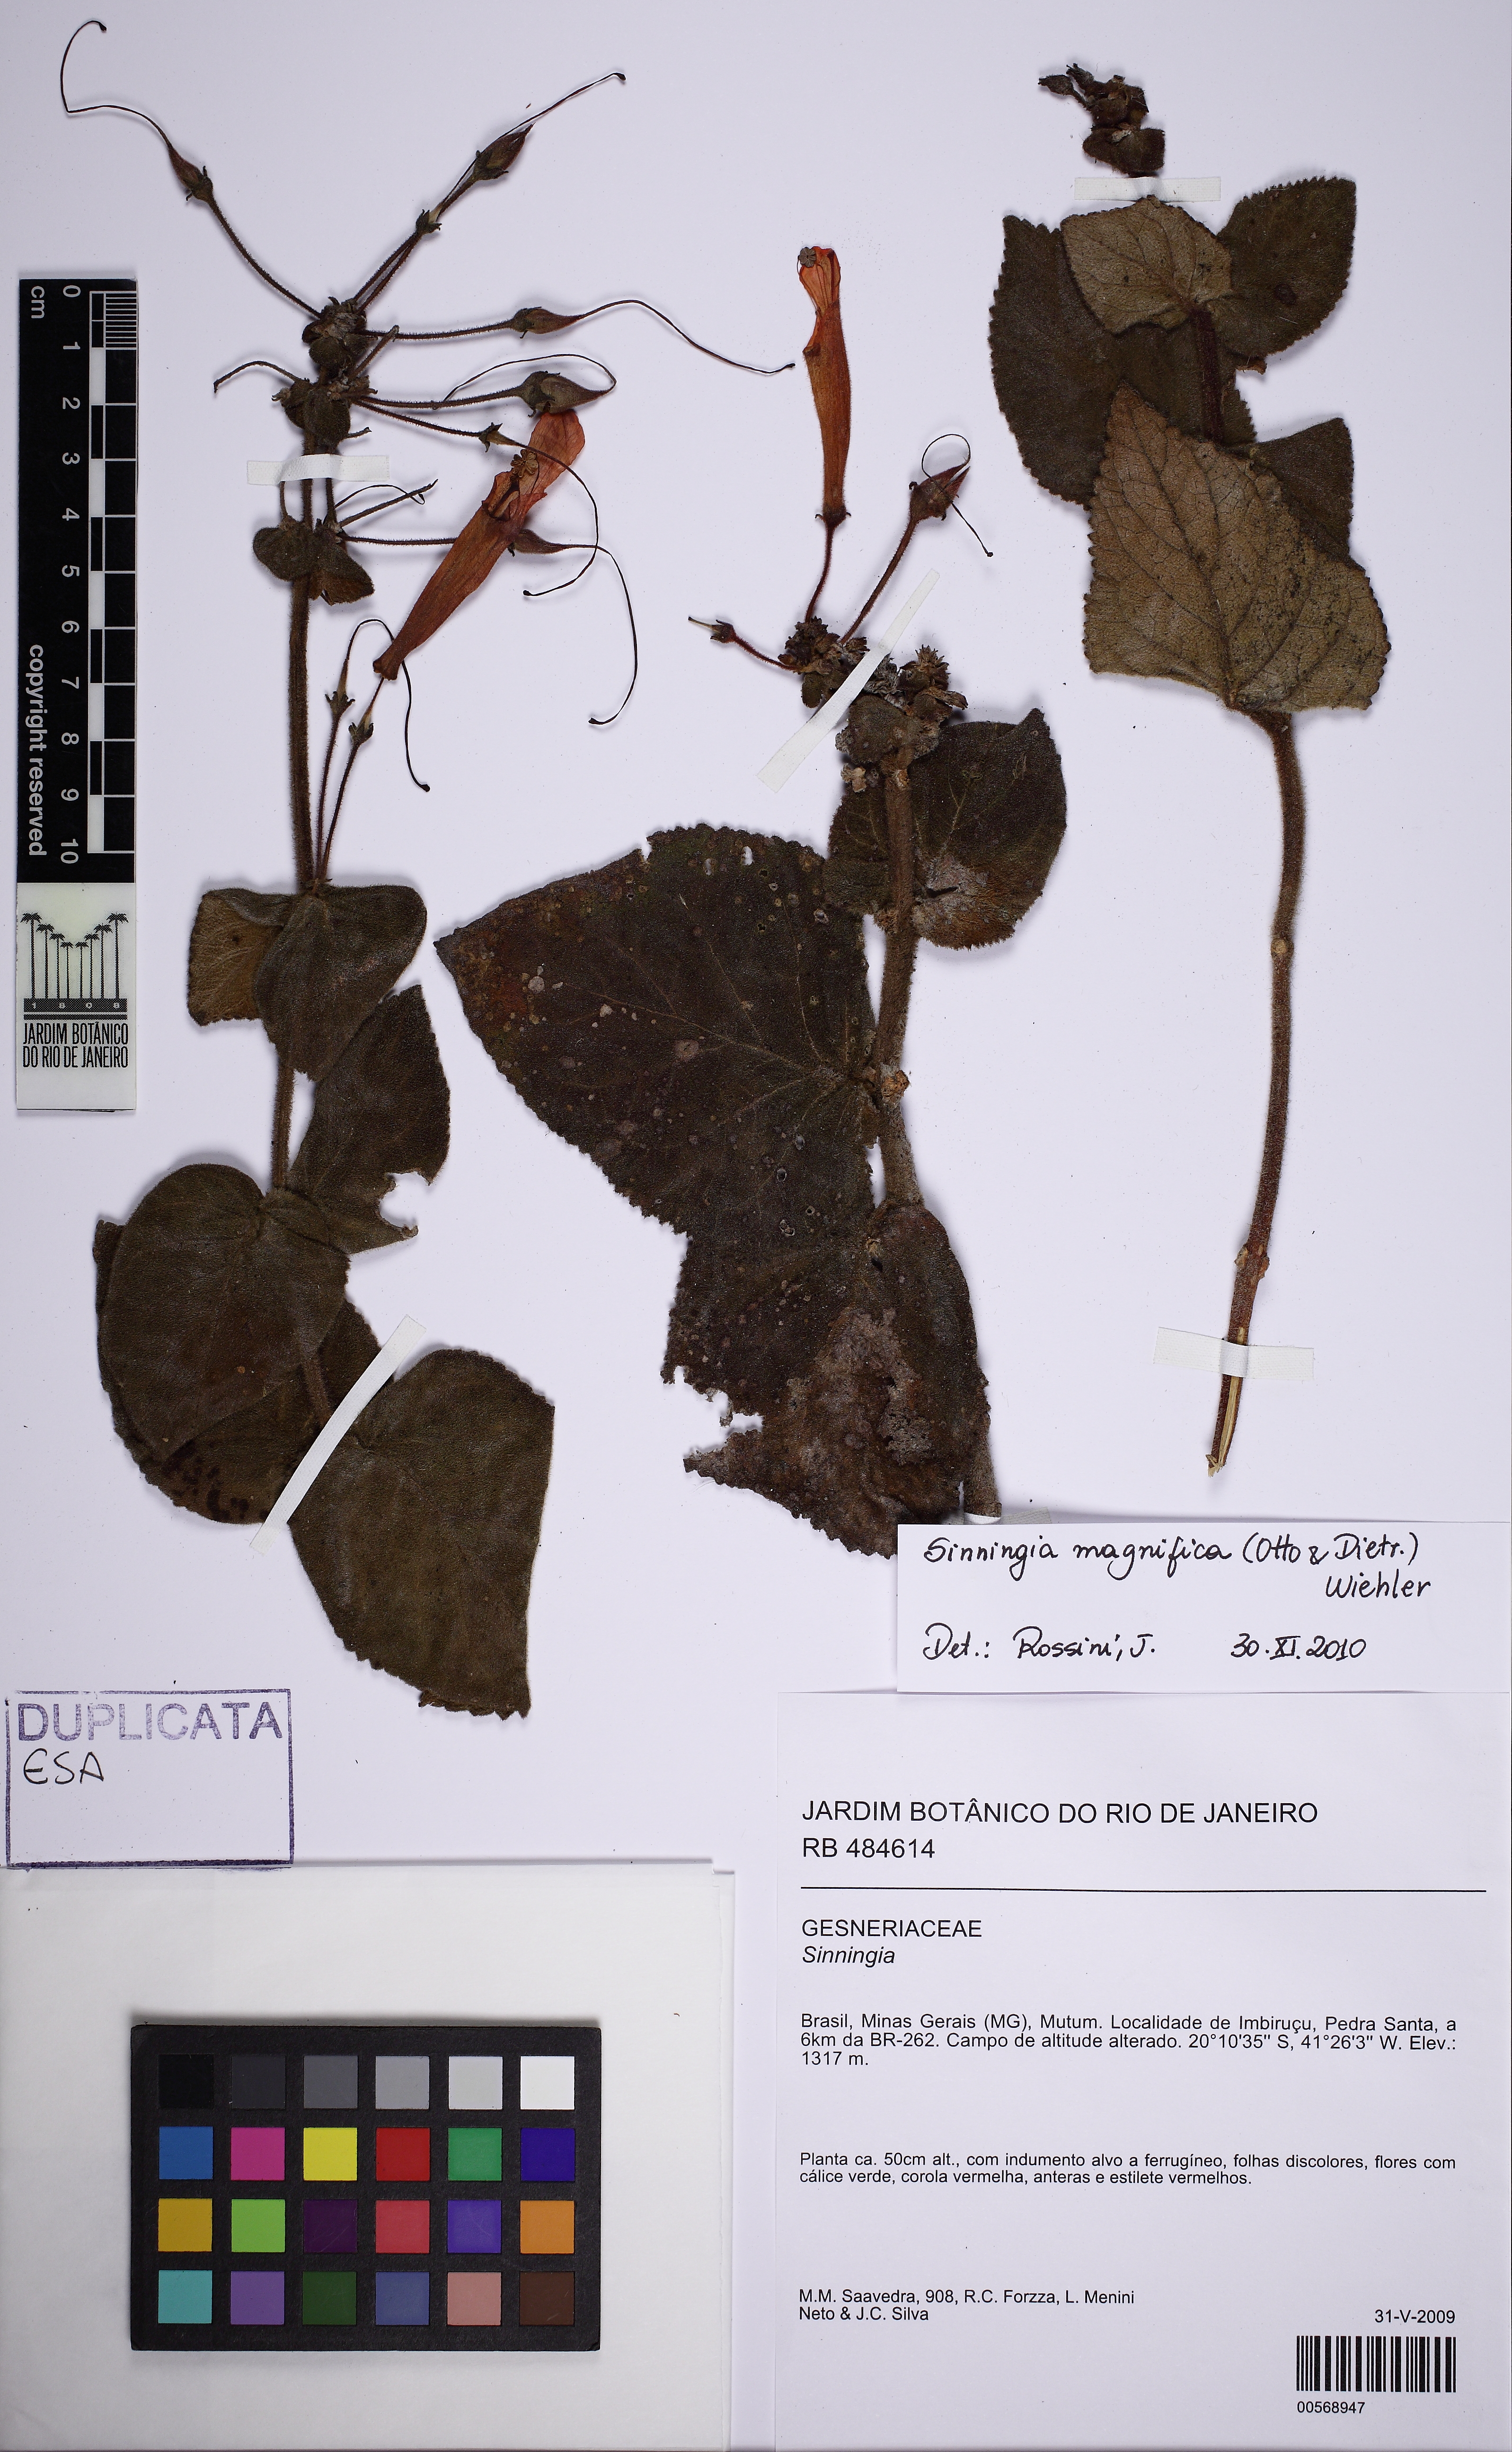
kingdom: Plantae
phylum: Tracheophyta
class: Magnoliopsida
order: Lamiales
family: Gesneriaceae
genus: Sinningia
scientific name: Sinningia magnifica
